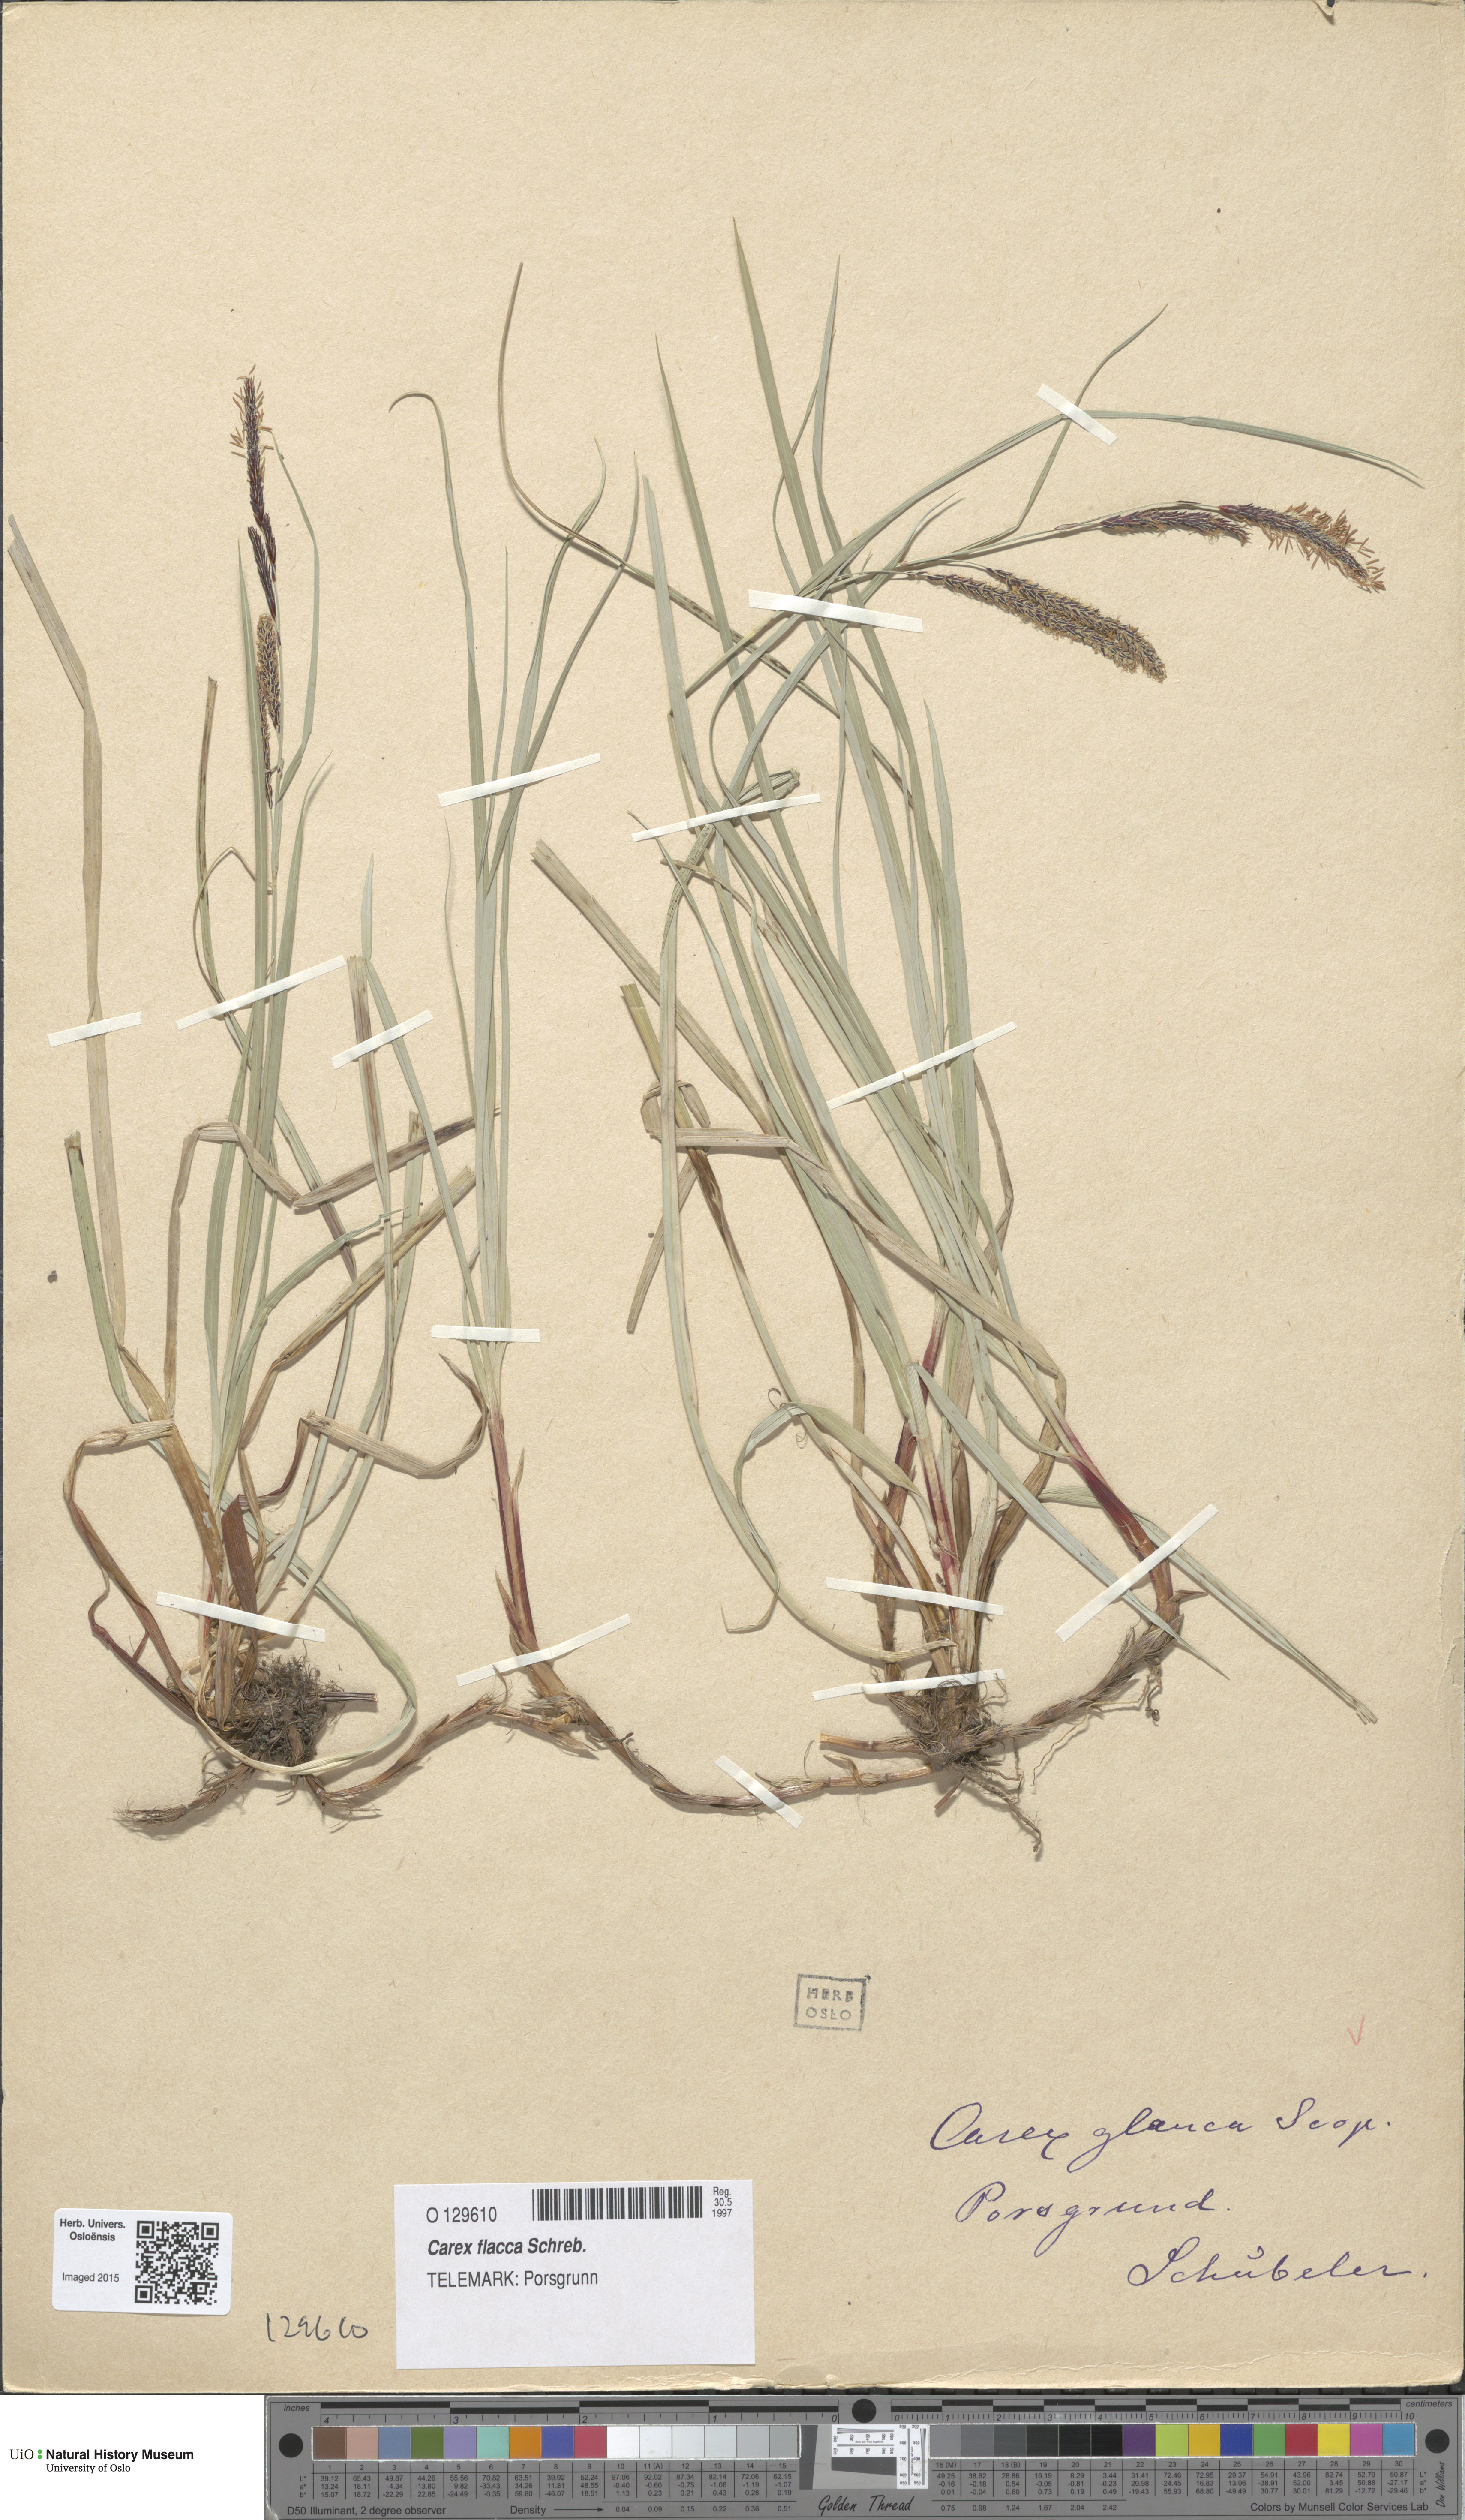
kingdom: Plantae
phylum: Tracheophyta
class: Liliopsida
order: Poales
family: Cyperaceae
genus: Carex
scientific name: Carex flacca
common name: Glaucous sedge
